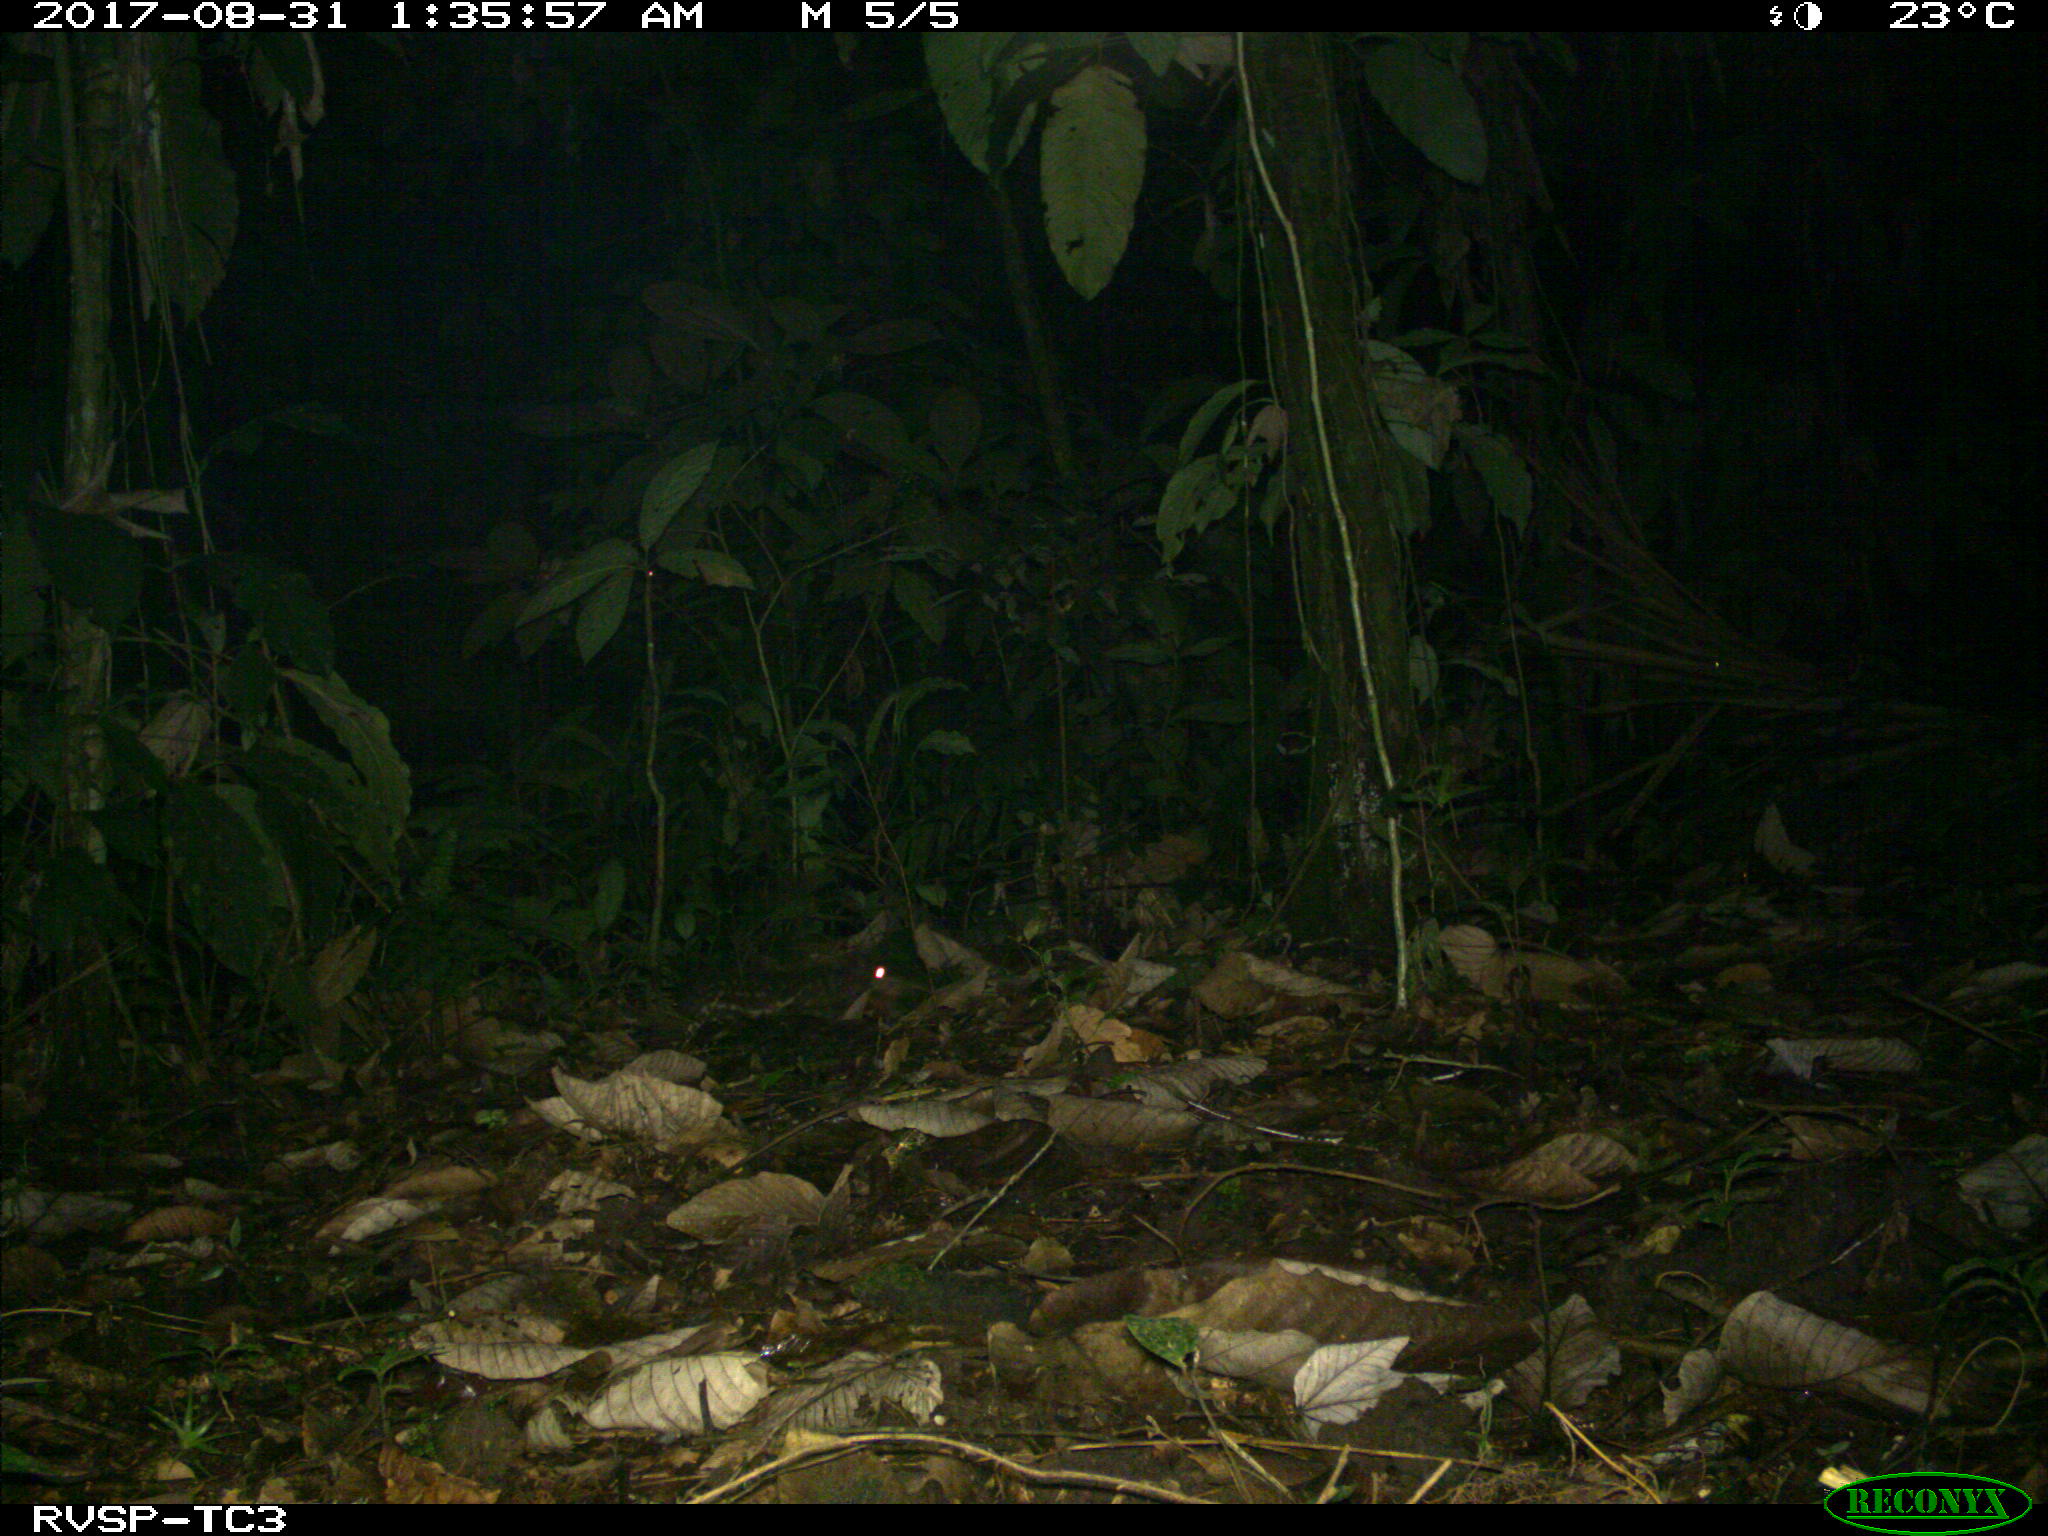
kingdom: Animalia
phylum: Chordata
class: Mammalia
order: Rodentia
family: Cuniculidae
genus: Cuniculus
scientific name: Cuniculus paca
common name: Lowland paca
